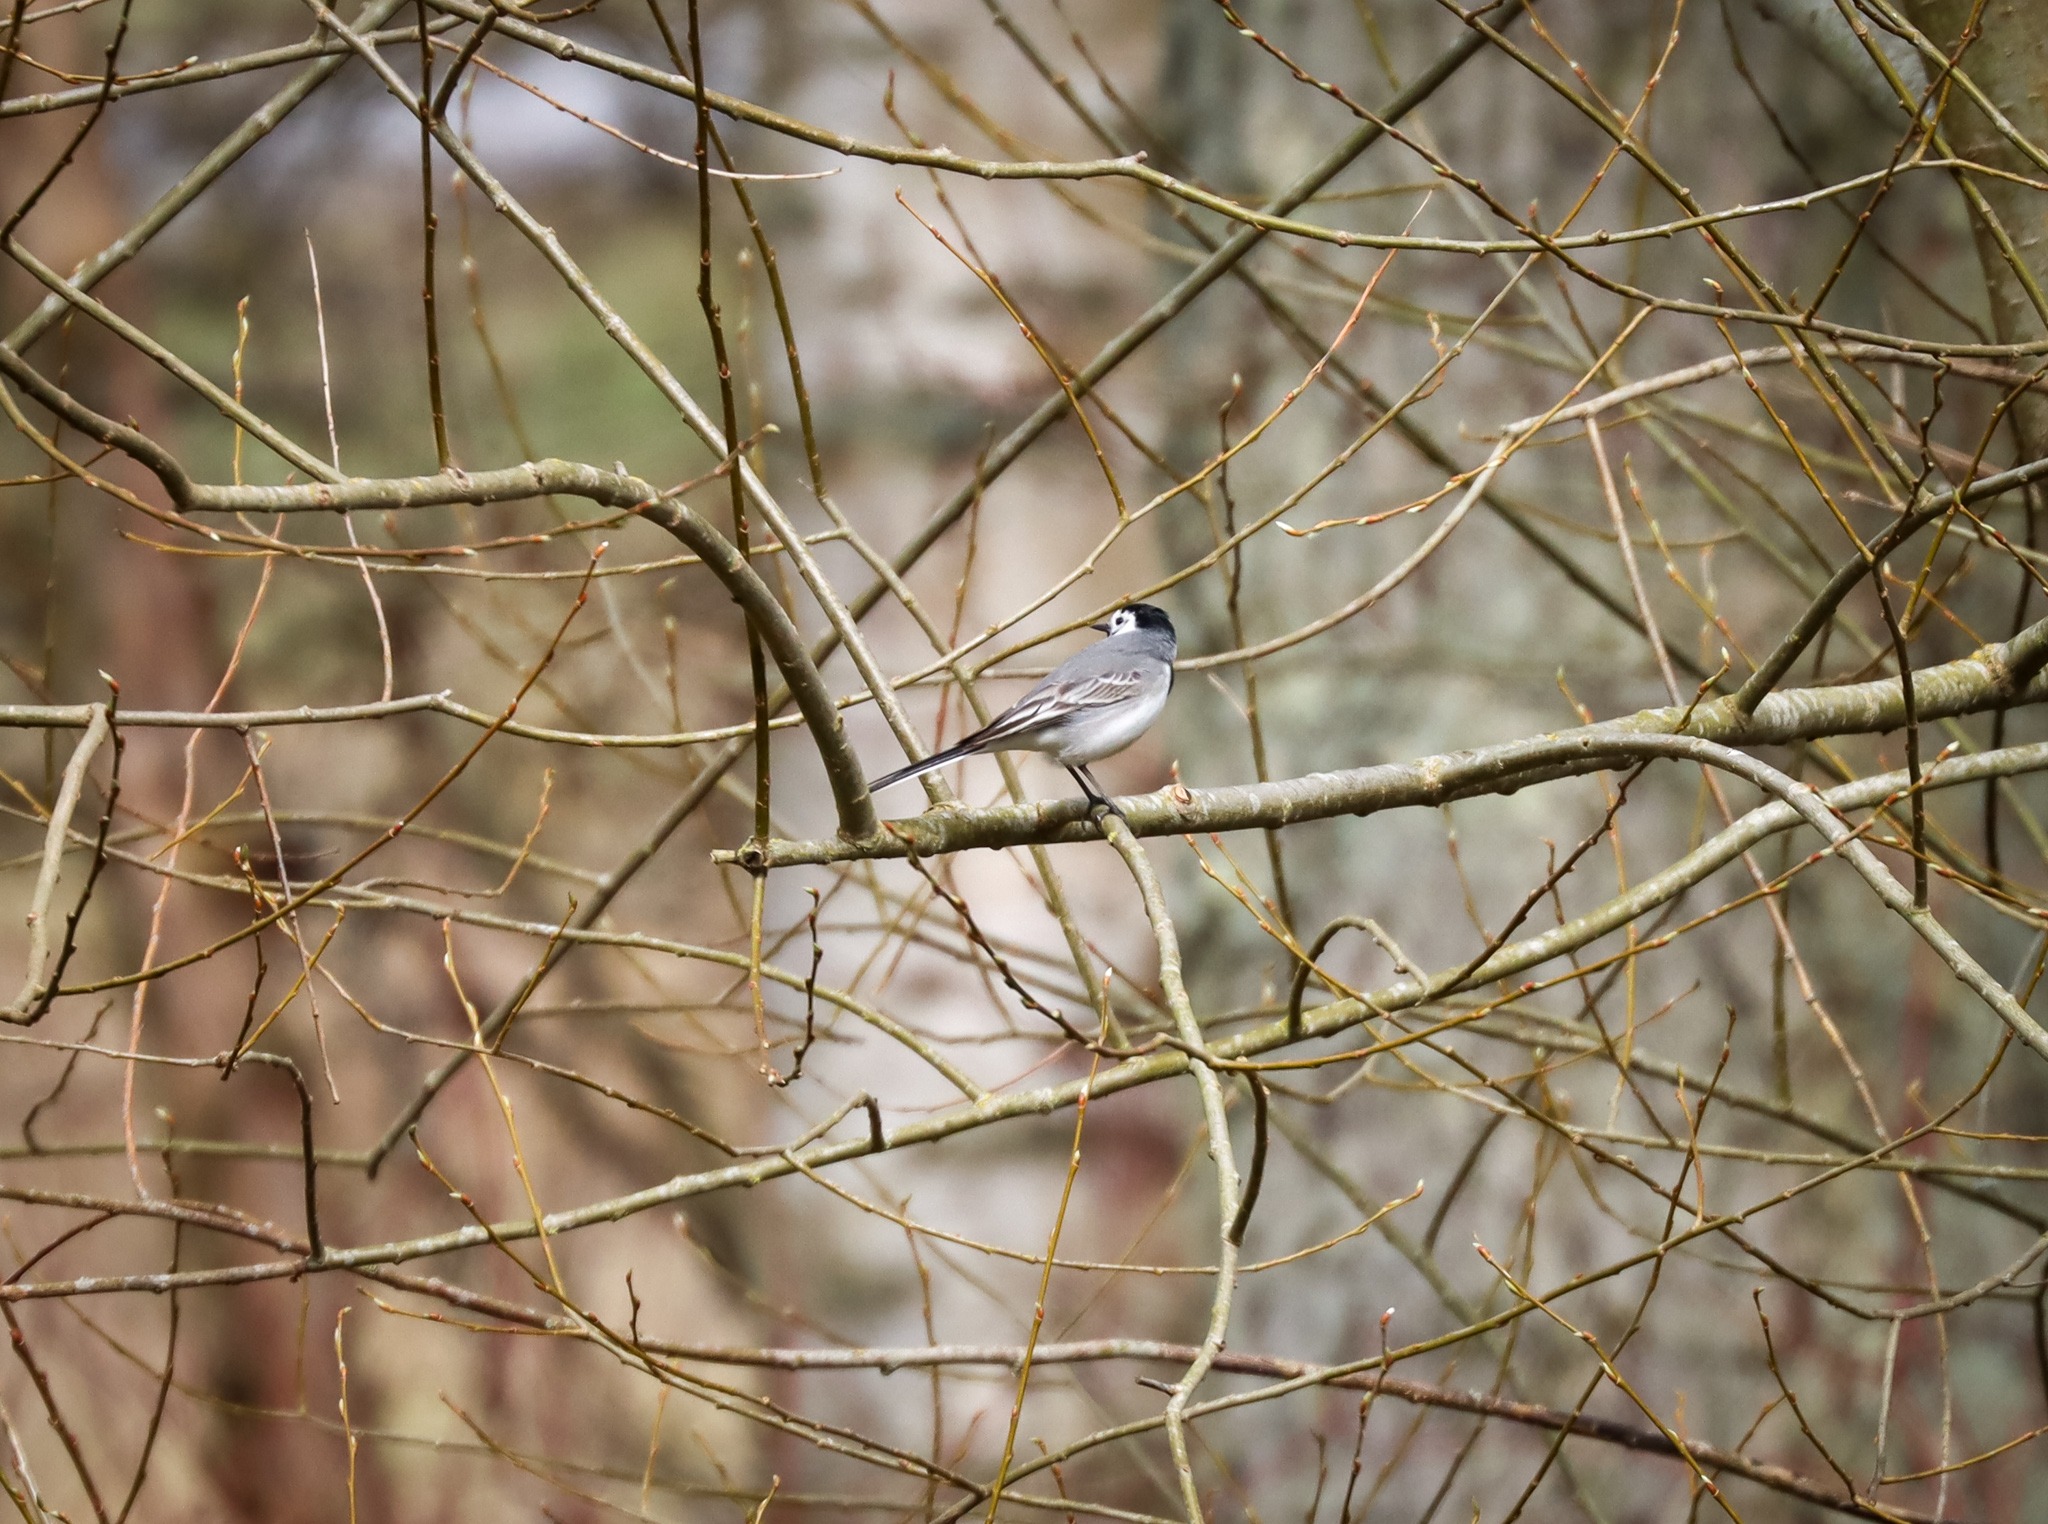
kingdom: Animalia
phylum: Chordata
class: Aves
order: Passeriformes
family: Motacillidae
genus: Motacilla
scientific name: Motacilla alba
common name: Hvid vipstjert
